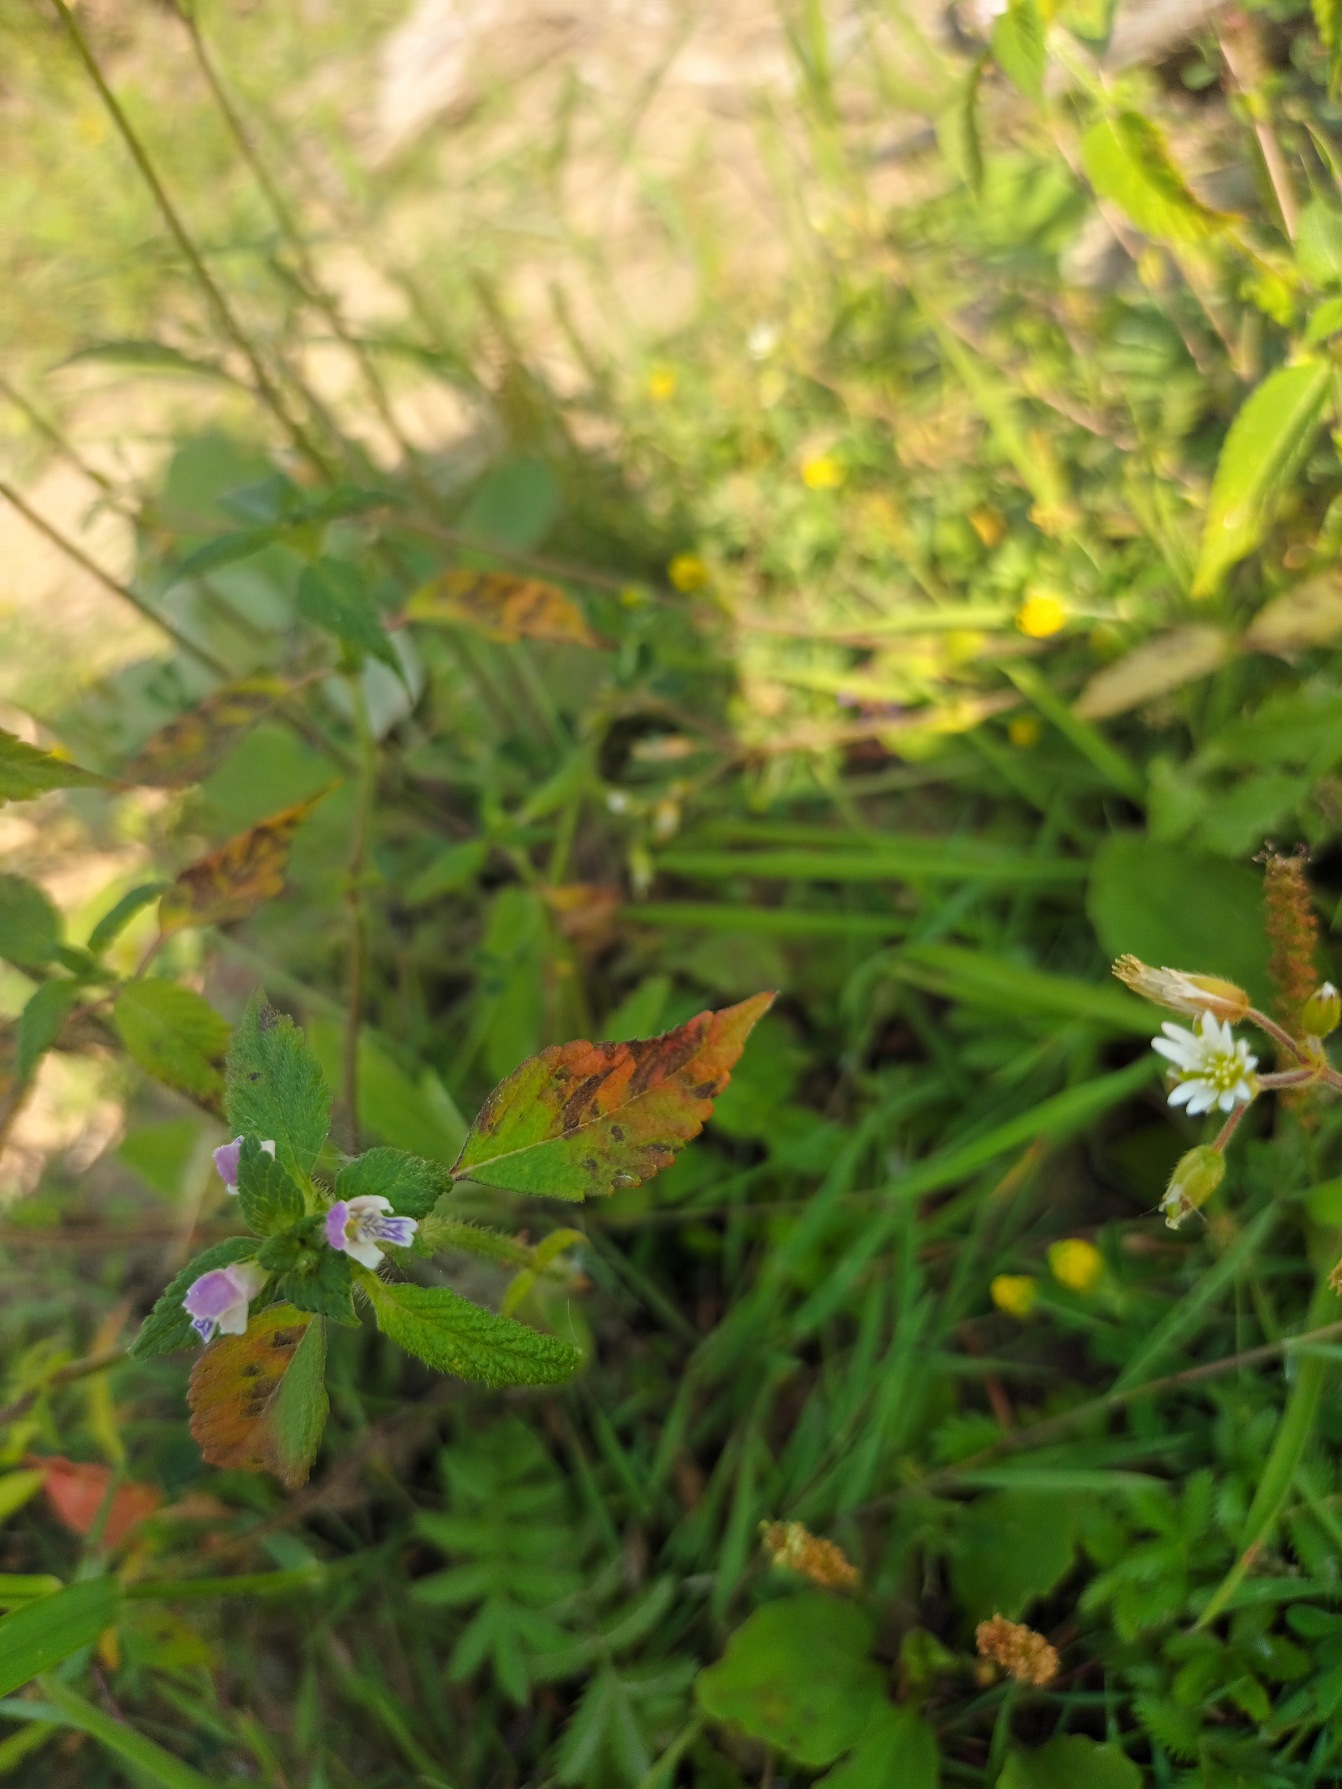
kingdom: Plantae
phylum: Tracheophyta
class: Magnoliopsida
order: Lamiales
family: Lamiaceae
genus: Galeopsis
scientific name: Galeopsis bifida
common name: Skov-hanekro
